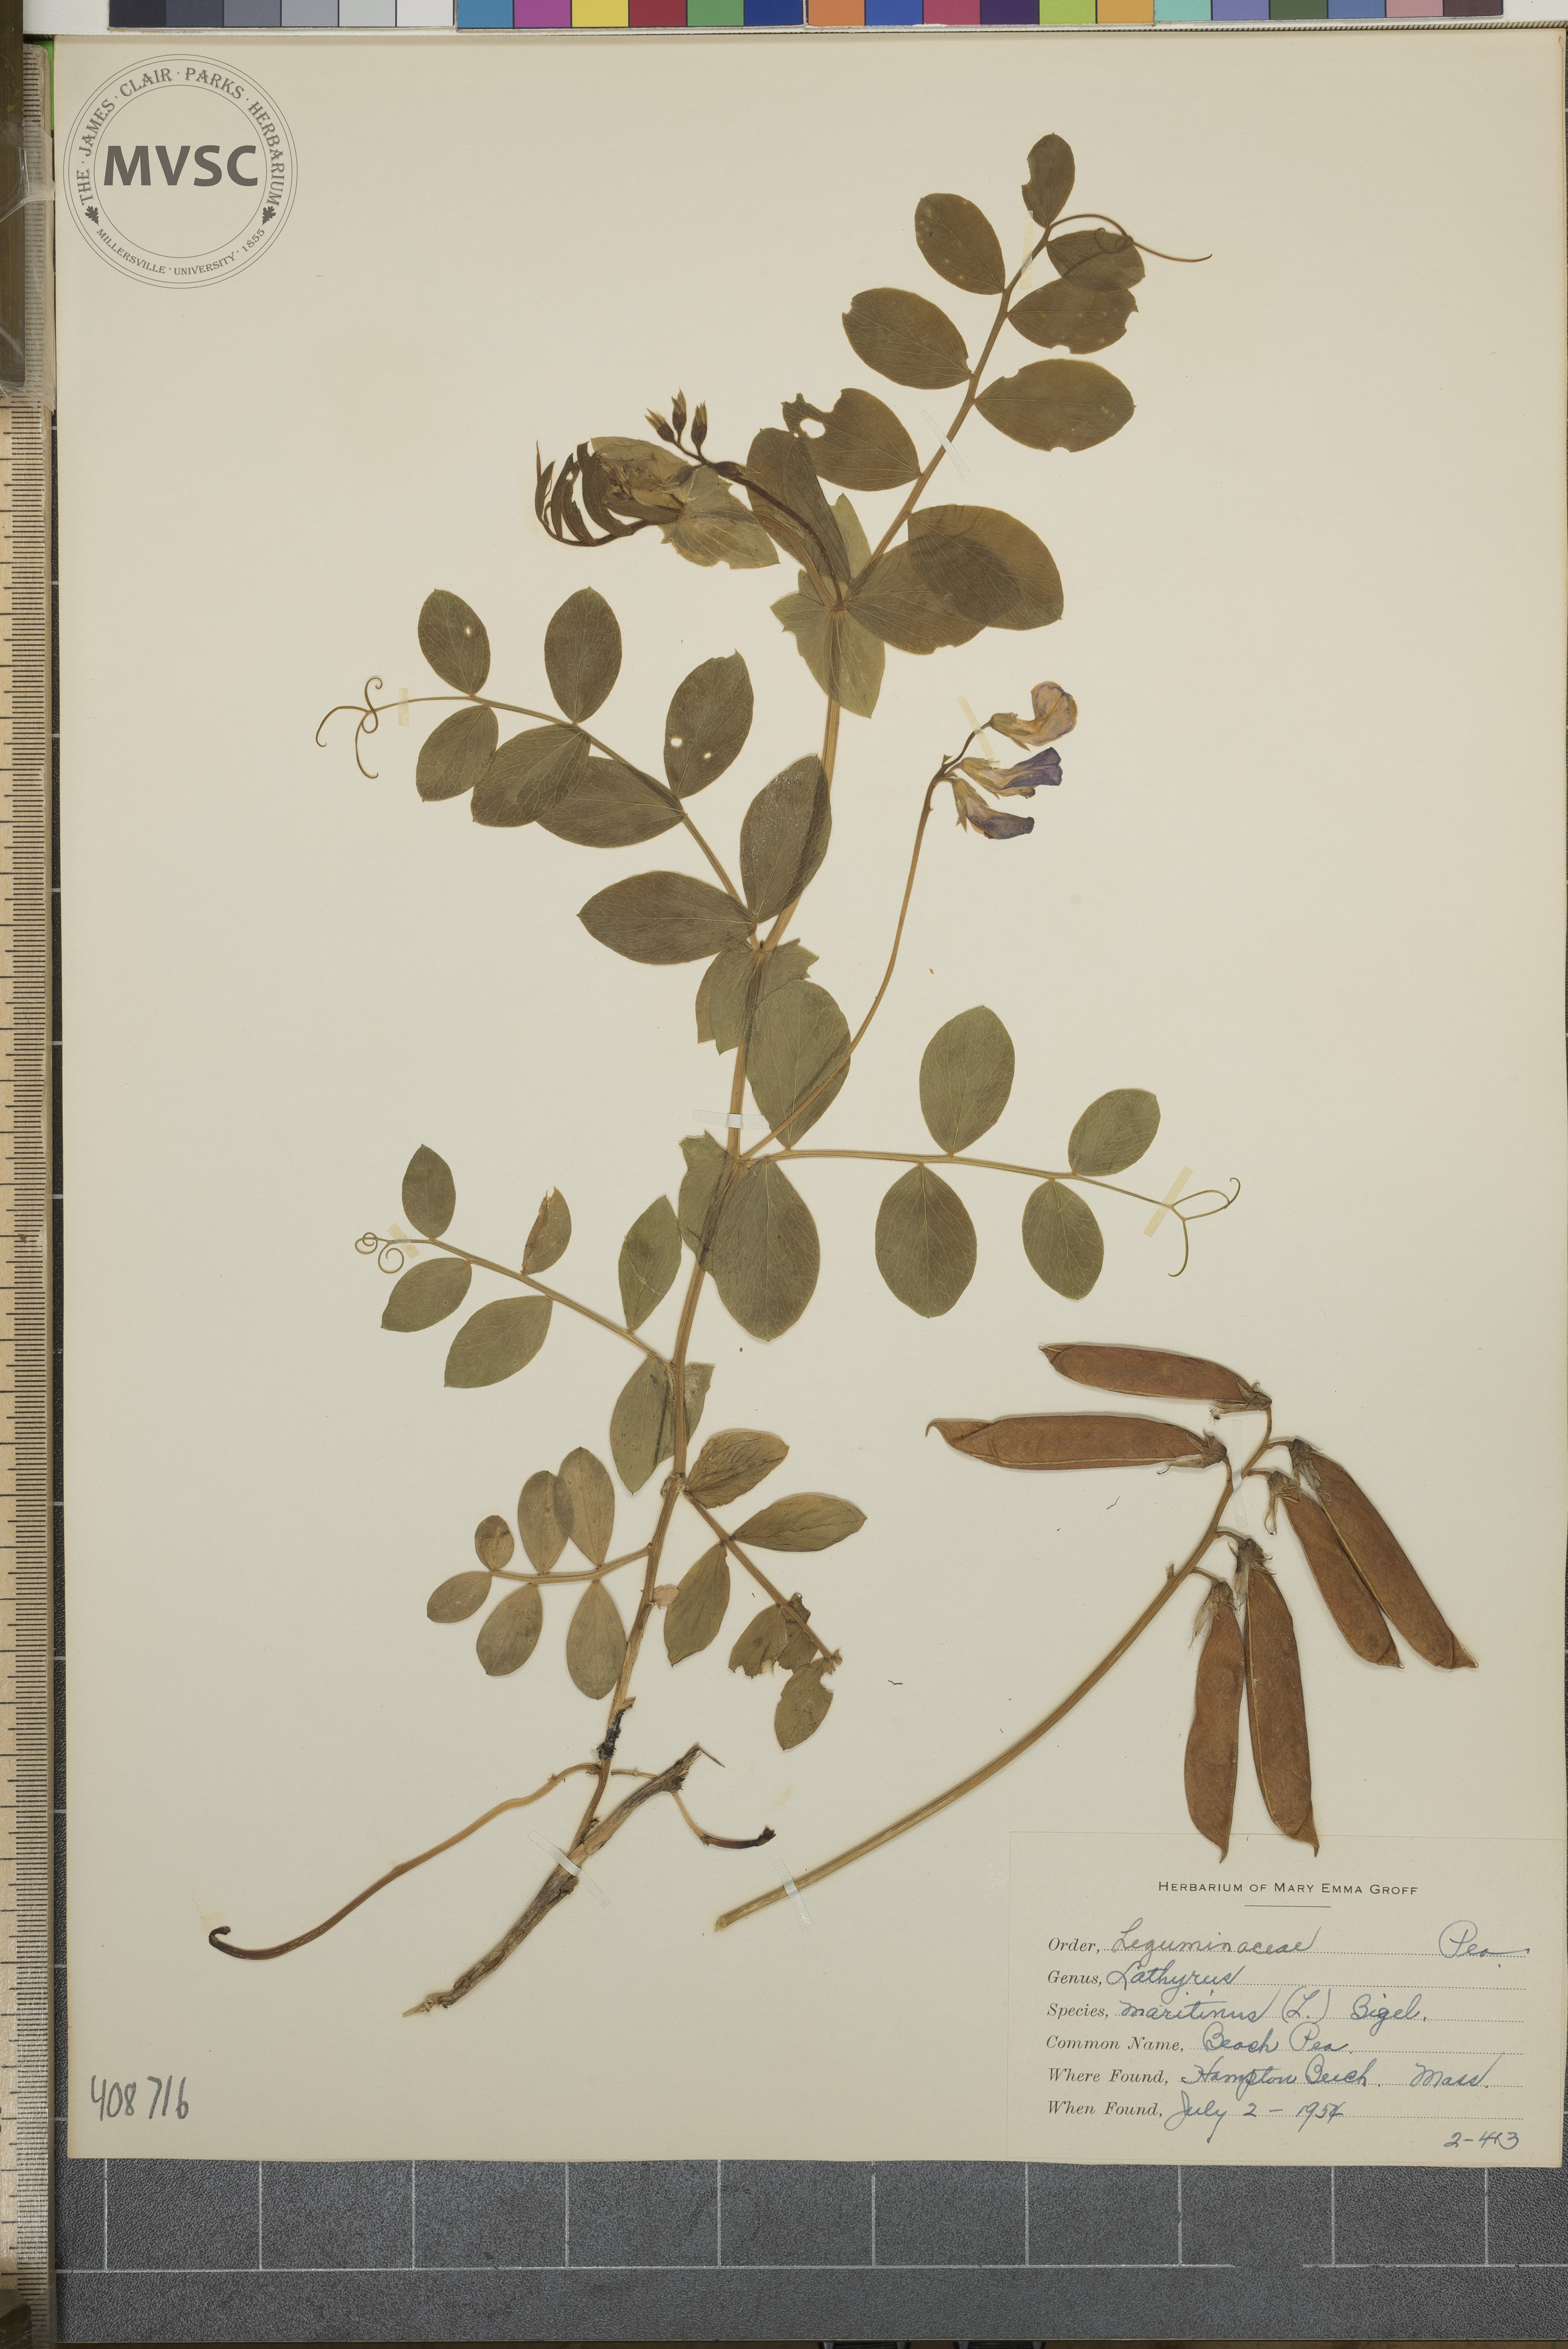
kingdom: Plantae
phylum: Tracheophyta
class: Magnoliopsida
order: Fabales
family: Fabaceae
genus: Lathyrus
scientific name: Lathyrus
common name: Beach Pea
